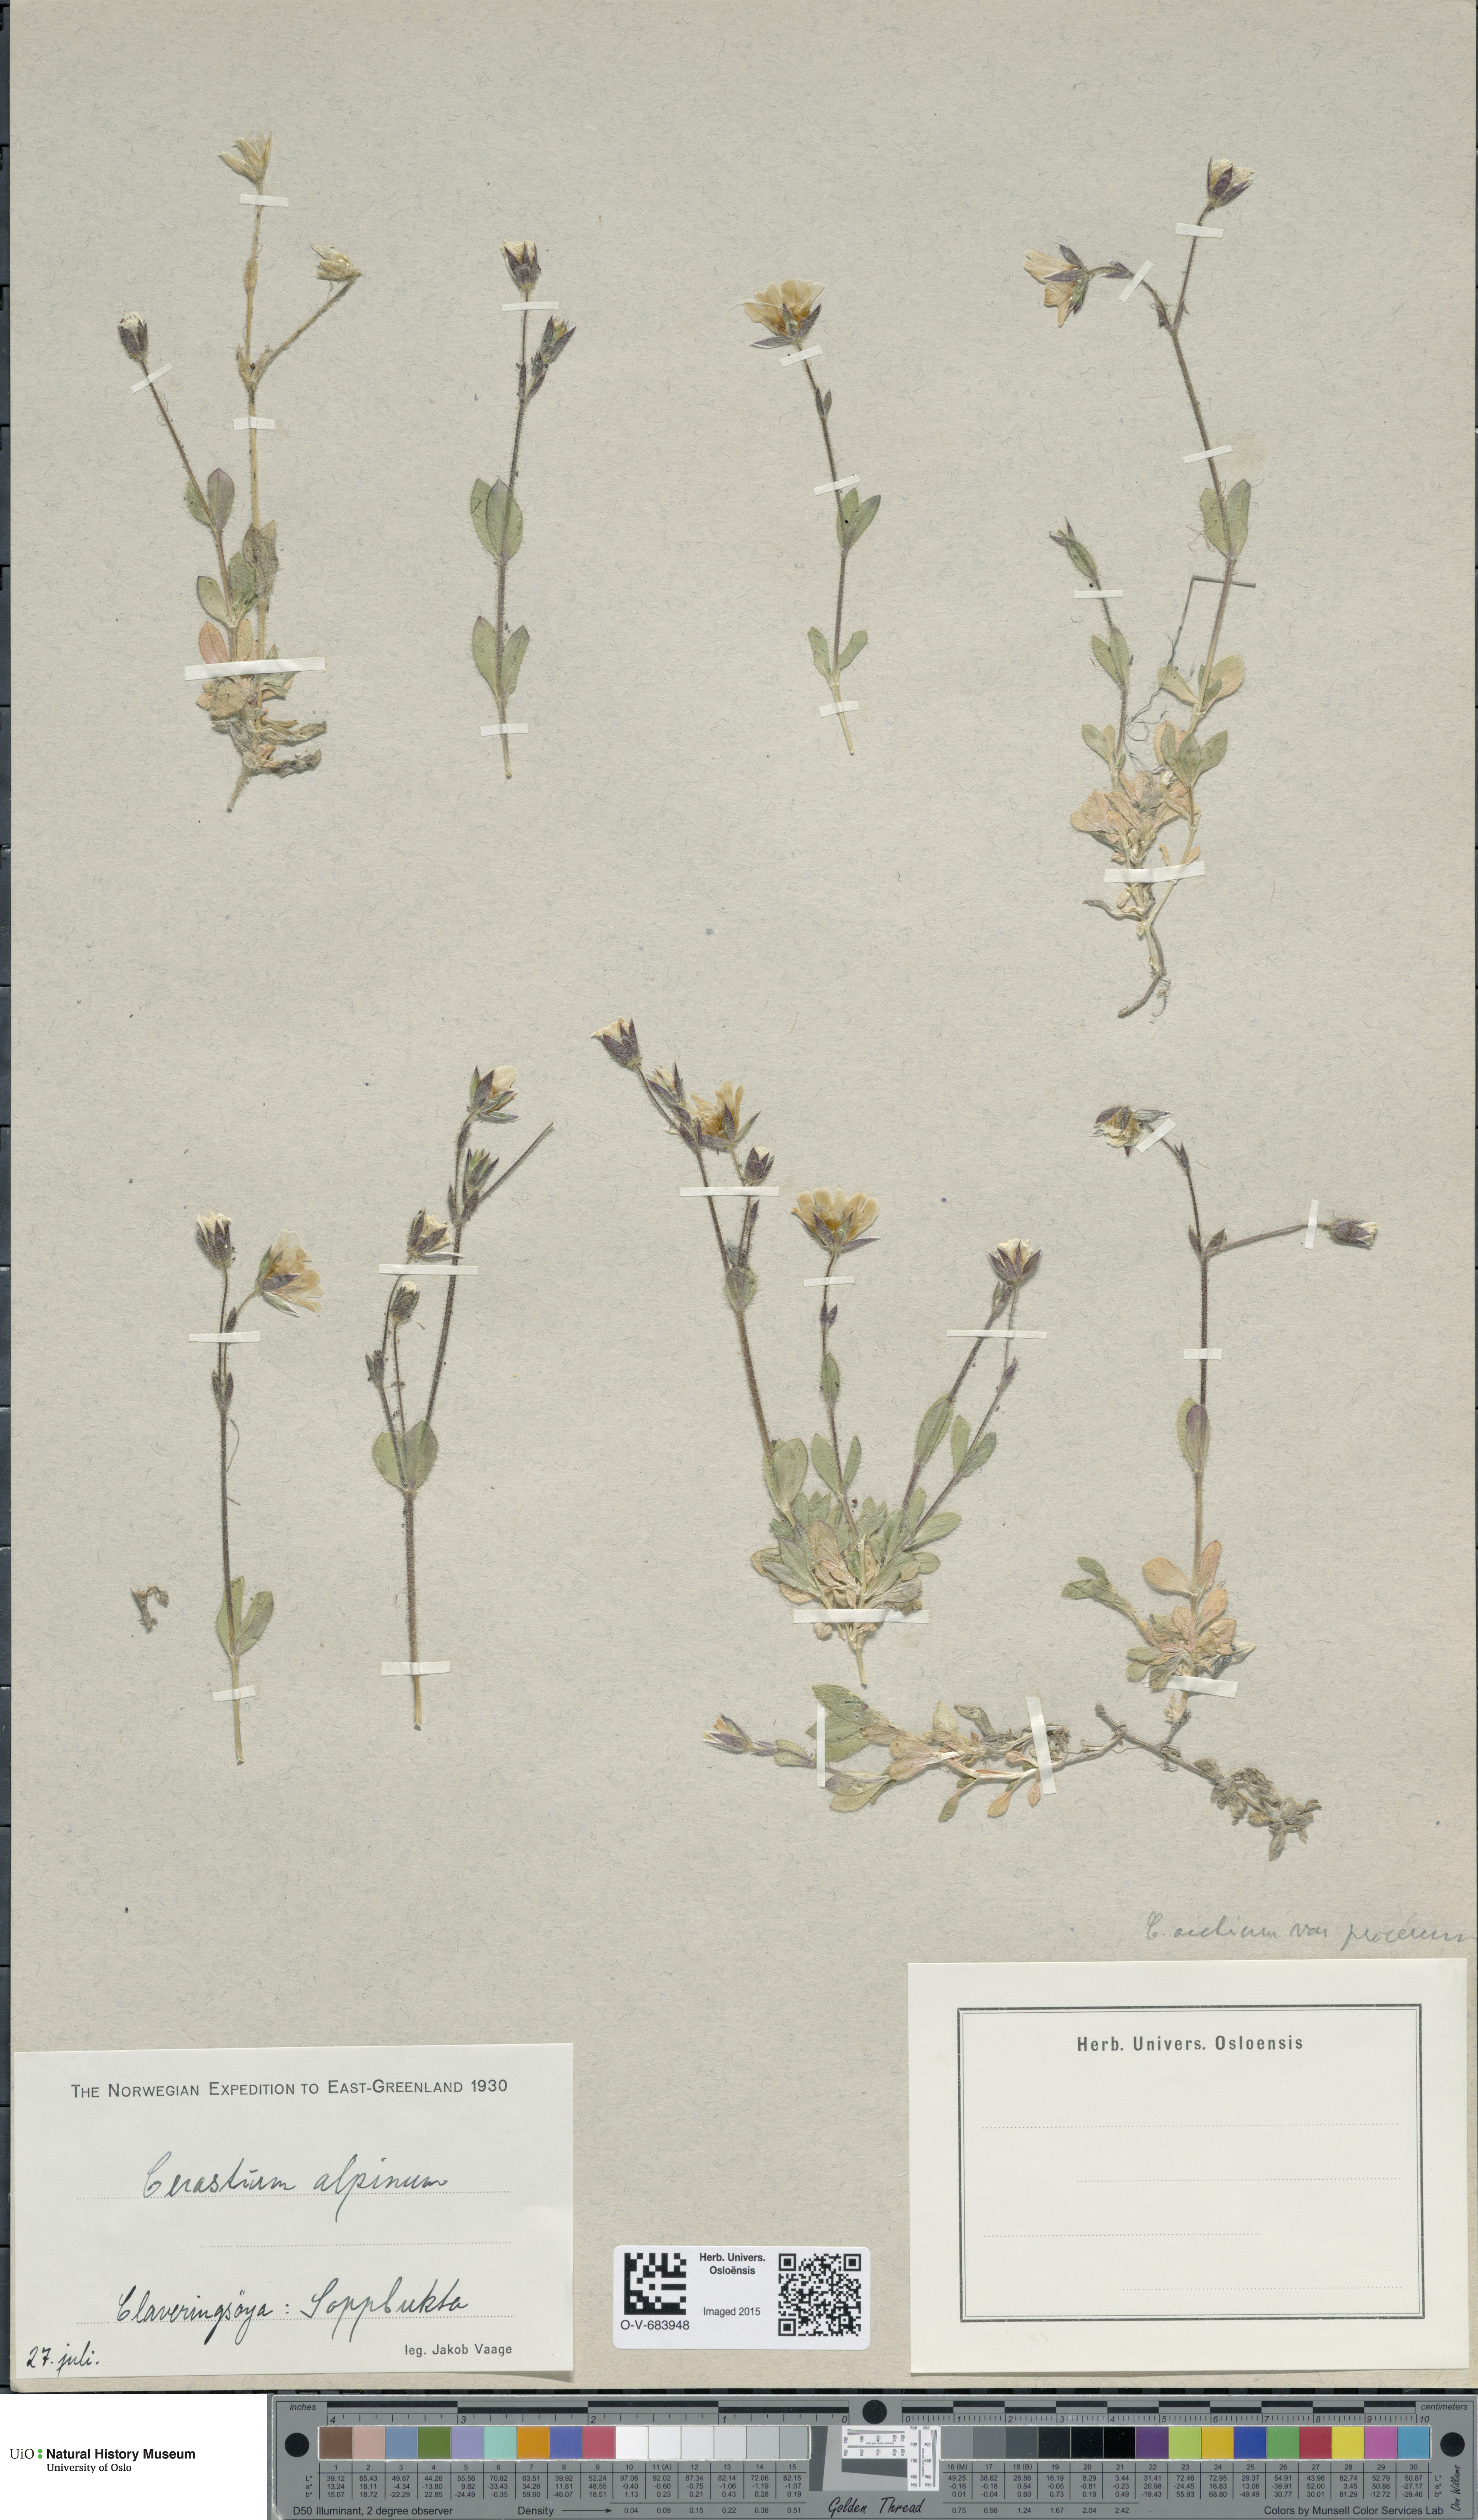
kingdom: Plantae
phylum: Tracheophyta
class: Magnoliopsida
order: Caryophyllales
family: Caryophyllaceae
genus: Cerastium
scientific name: Cerastium arcticum
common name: Arctic mouse-ear
